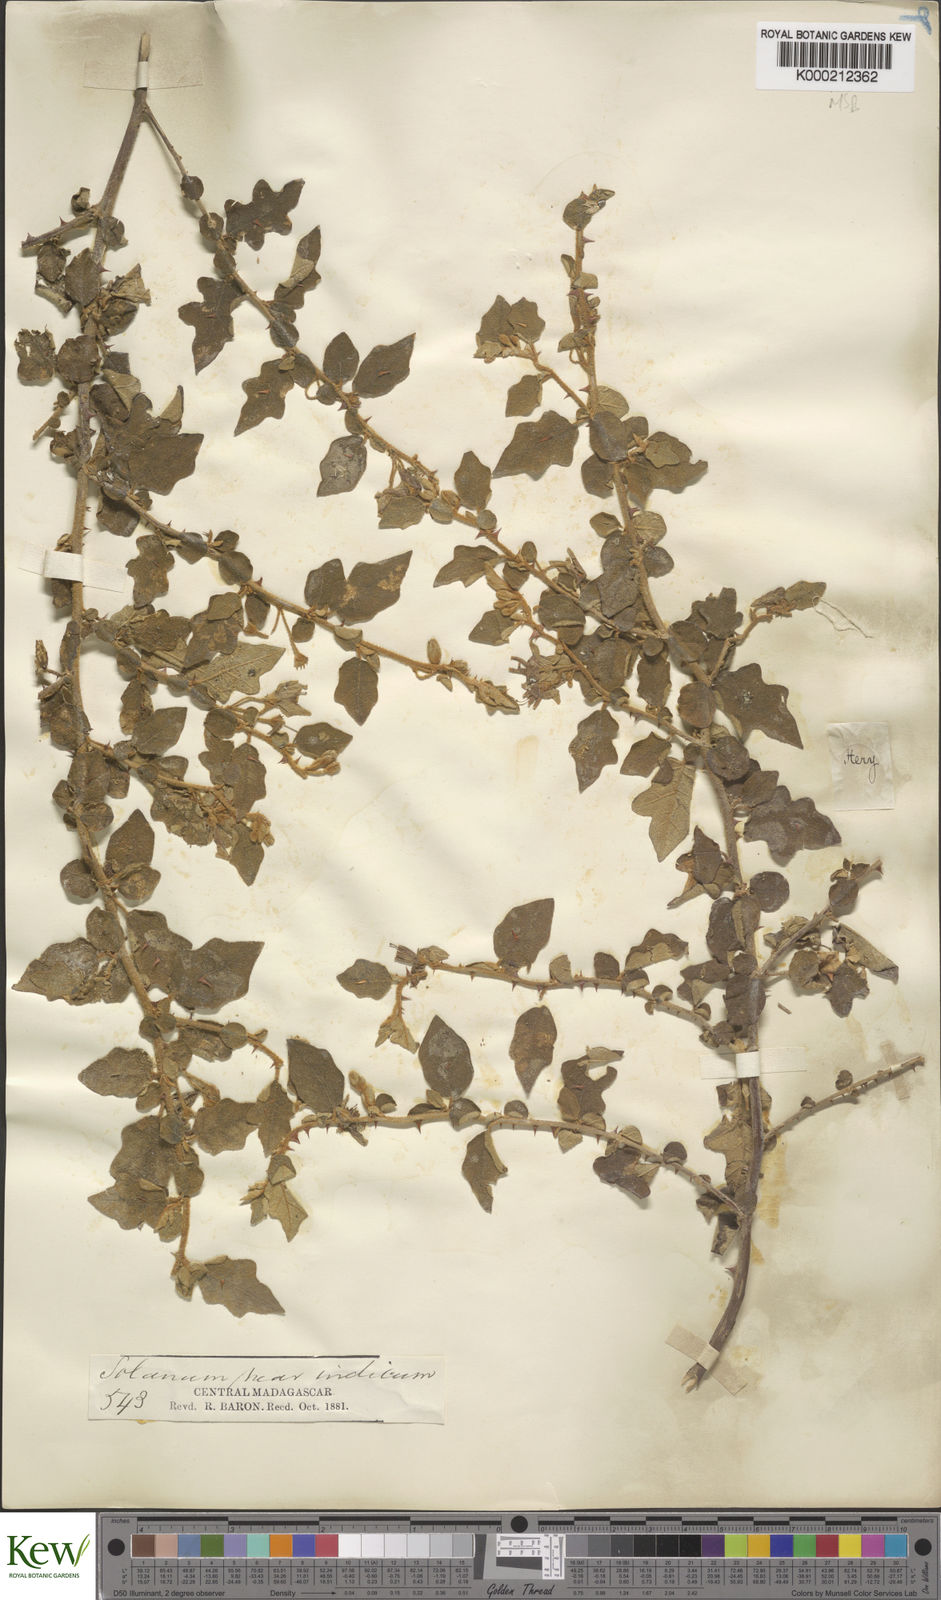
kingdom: Plantae
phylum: Tracheophyta
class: Magnoliopsida
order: Solanales
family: Solanaceae
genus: Solanum
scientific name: Solanum erythracanthum
